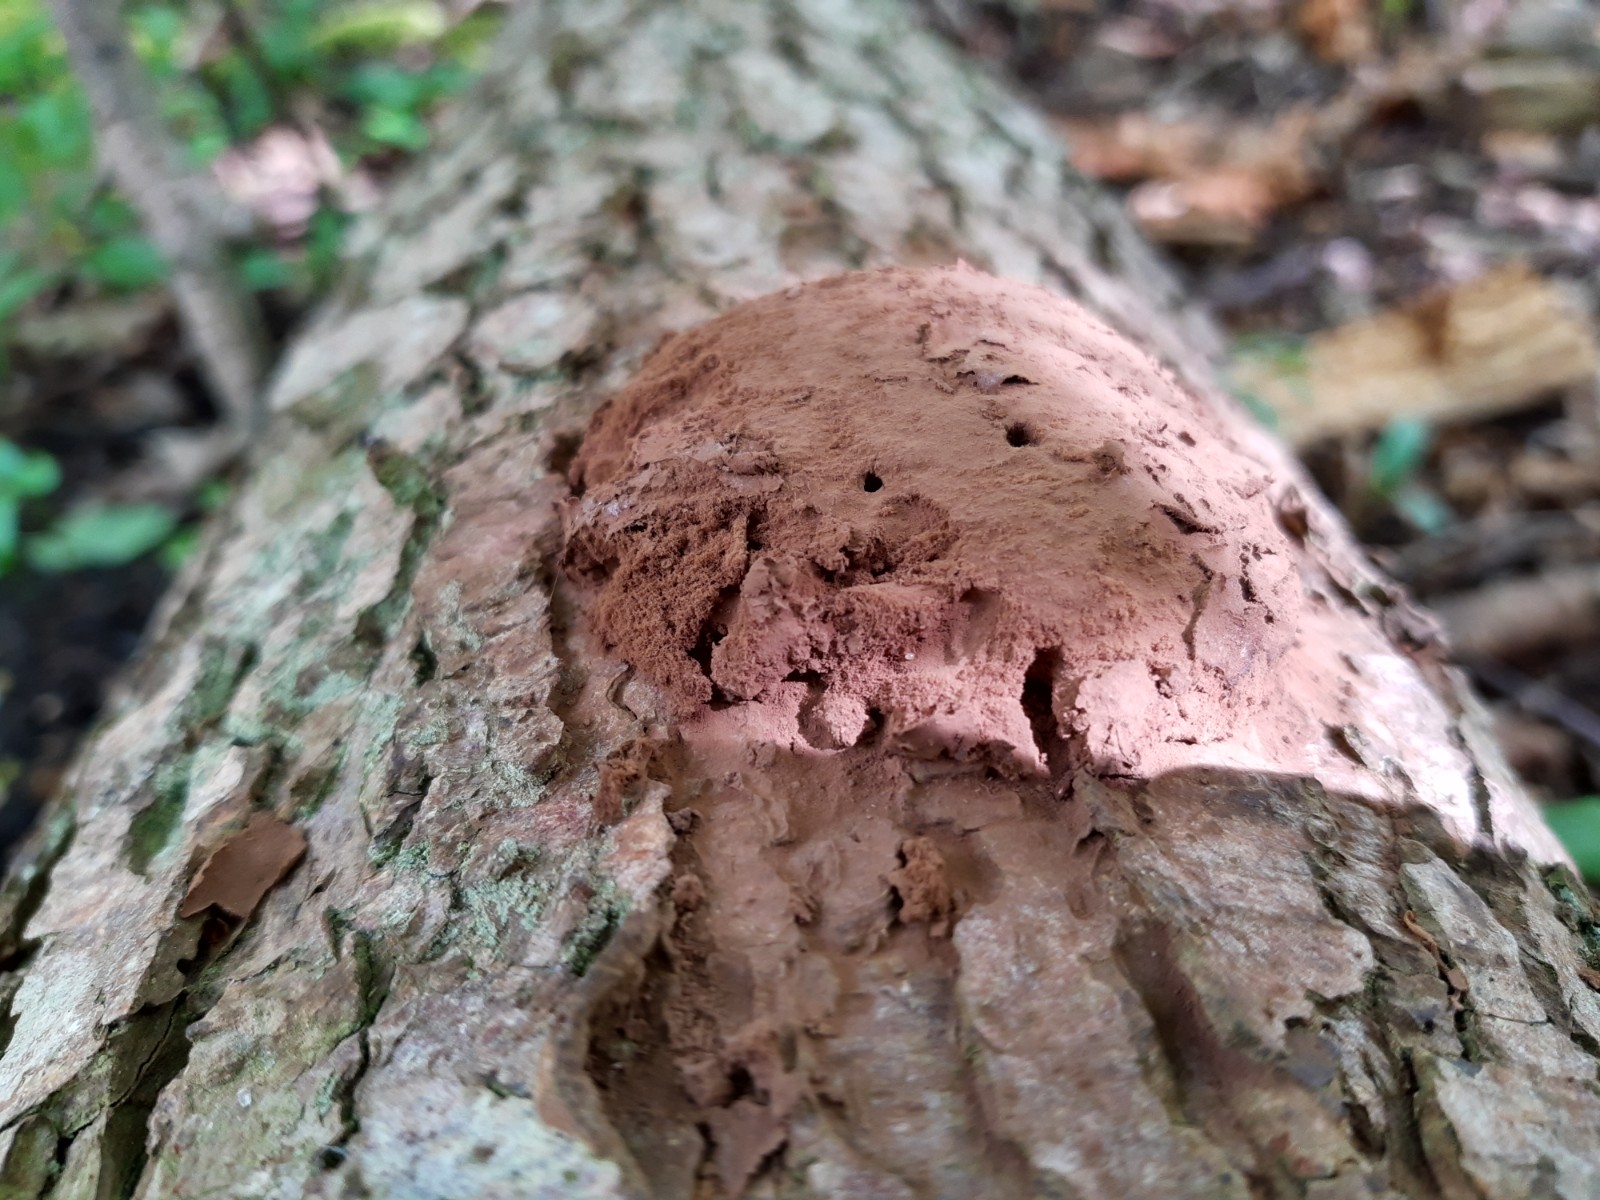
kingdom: Protozoa
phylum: Mycetozoa
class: Myxomycetes
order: Cribrariales
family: Tubiferaceae
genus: Reticularia
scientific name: Reticularia lycoperdon
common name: skinnende støvpude
